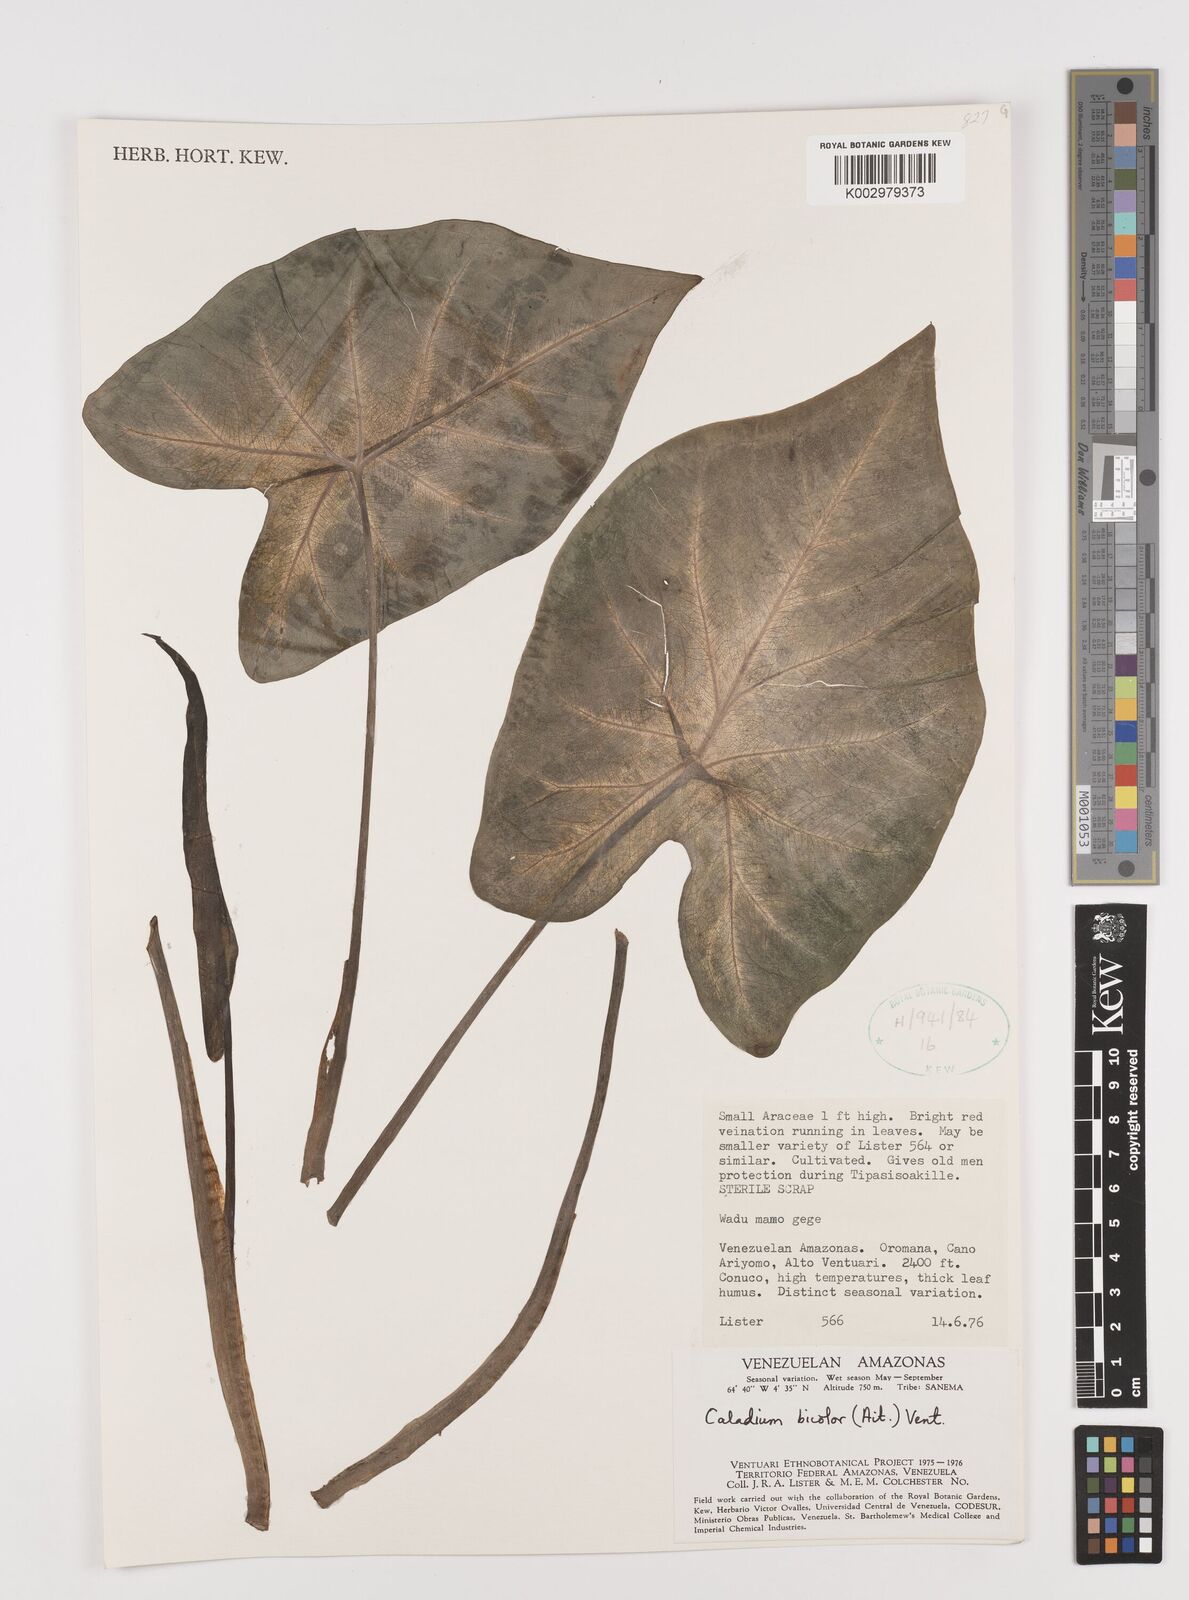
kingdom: Plantae
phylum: Tracheophyta
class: Liliopsida
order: Alismatales
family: Araceae
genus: Caladium
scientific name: Caladium bicolor
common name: Artist's pallet
